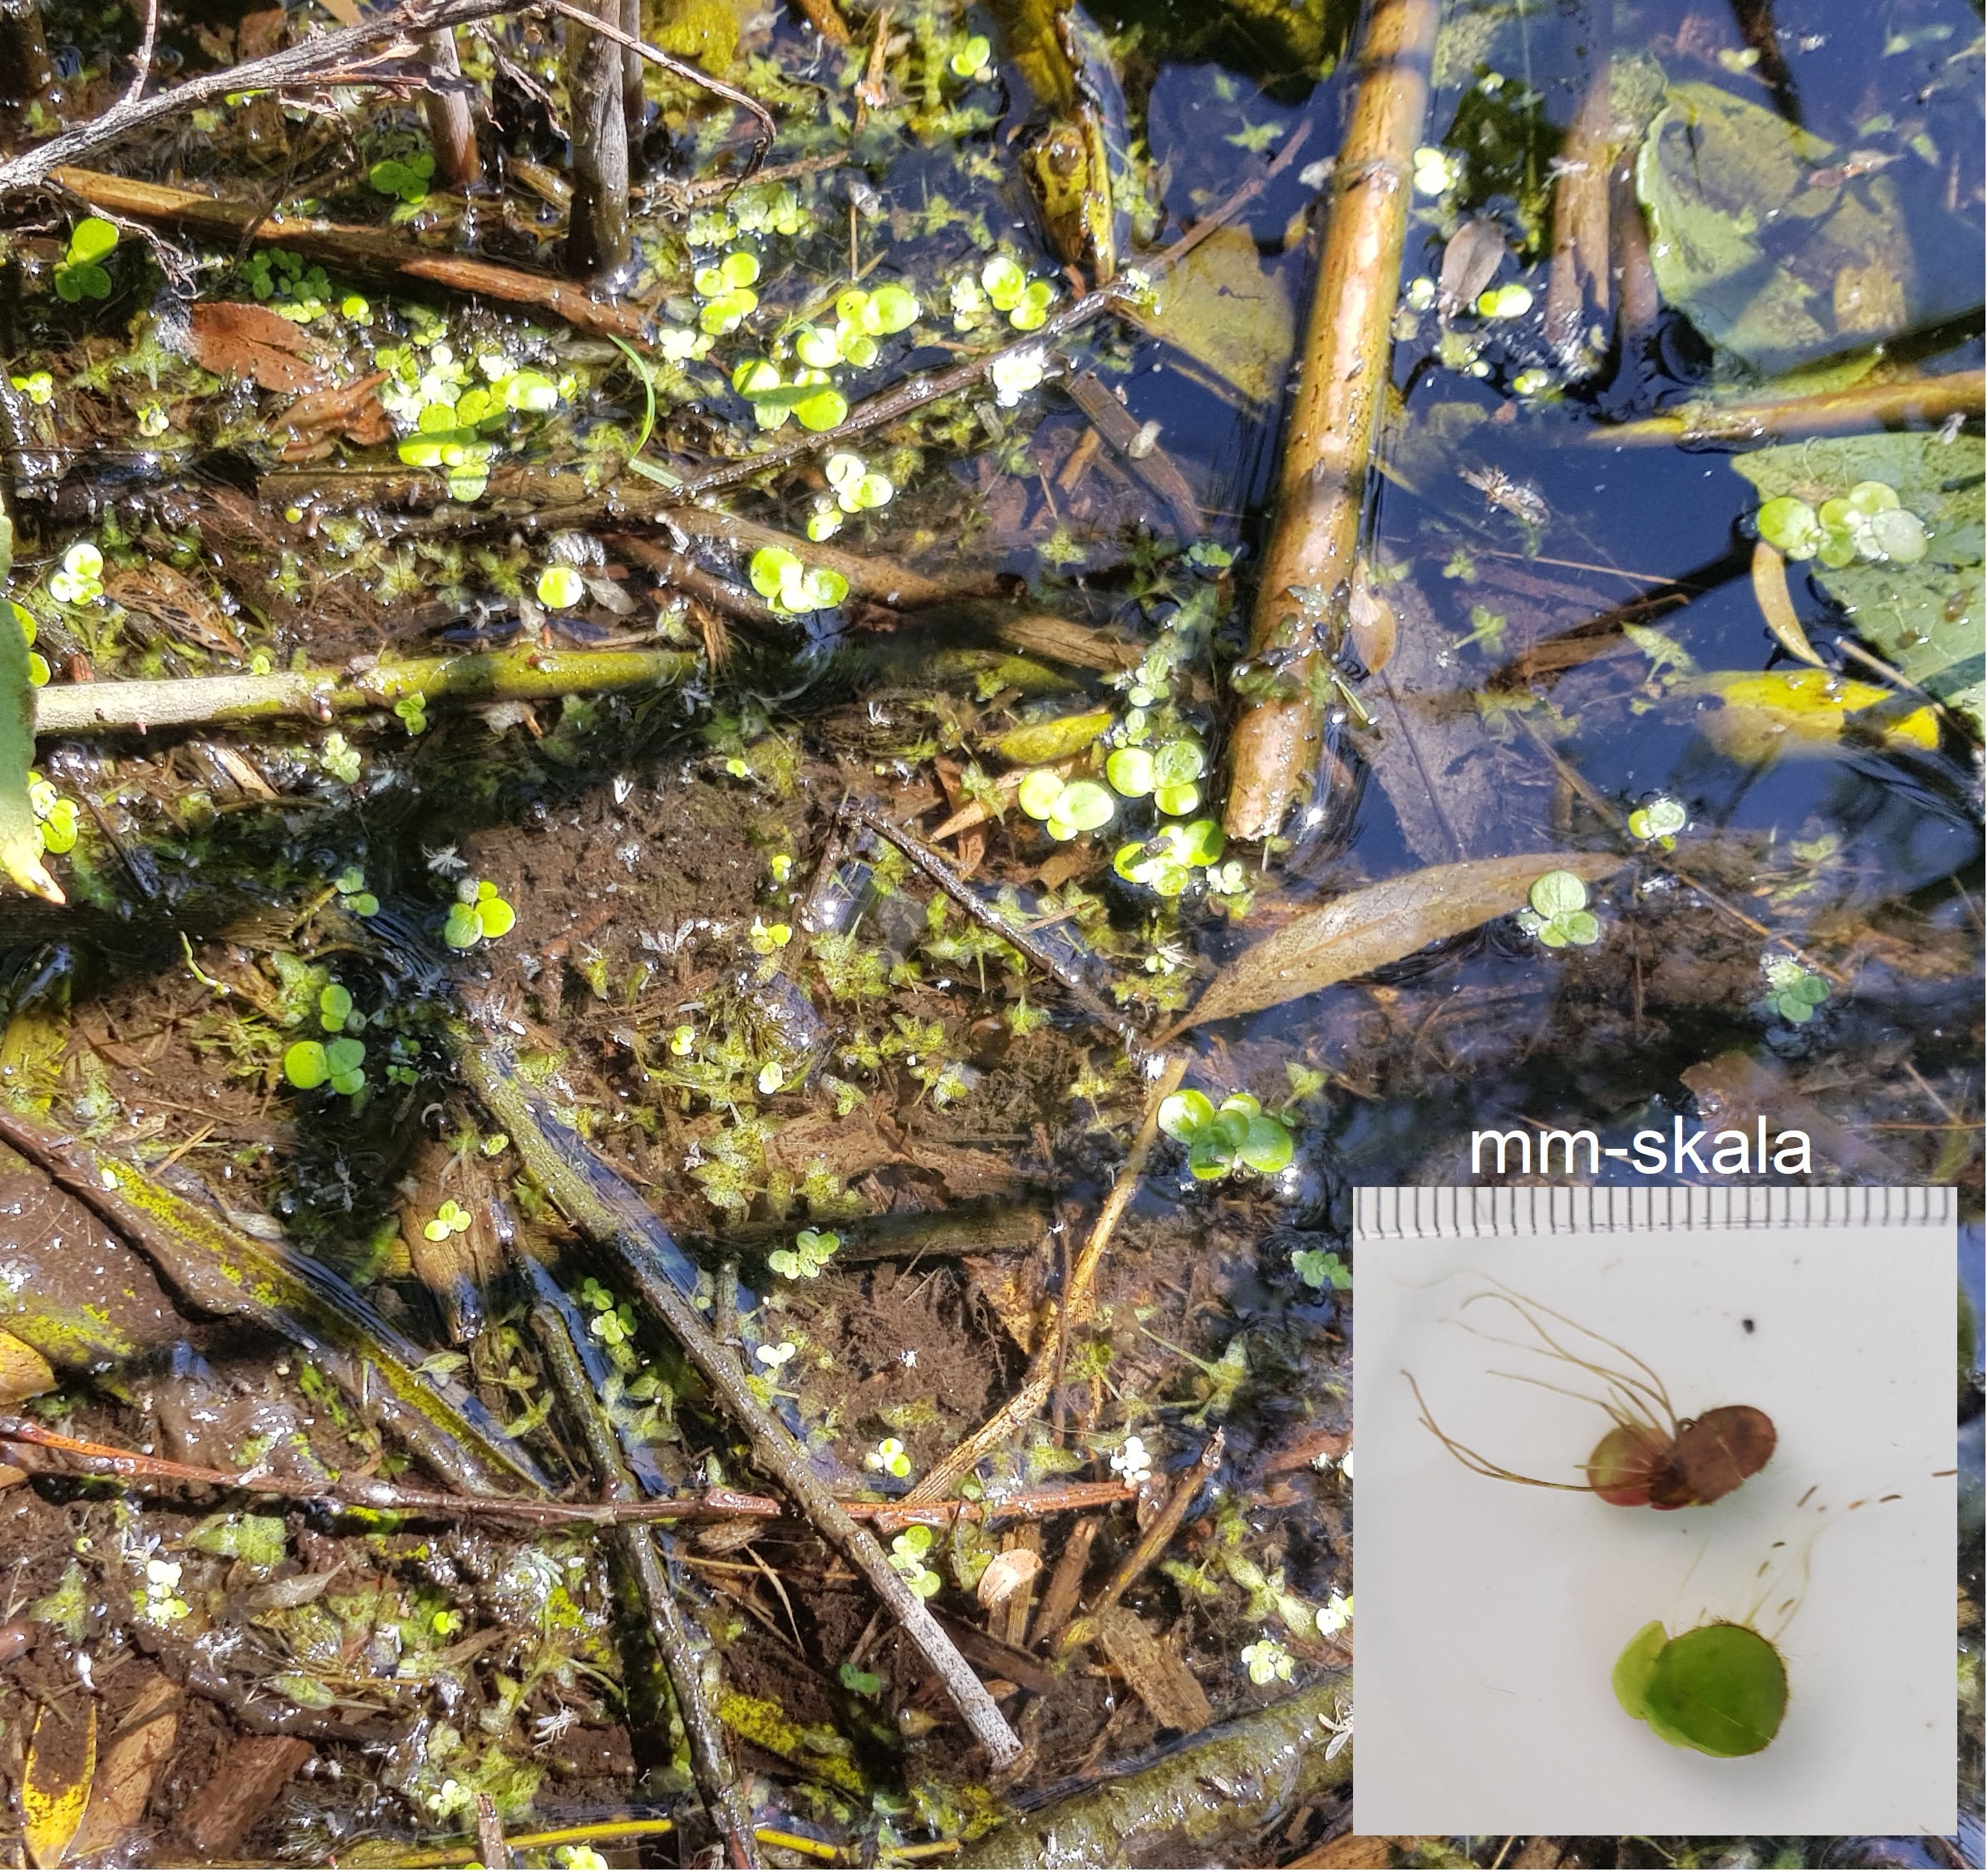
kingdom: Plantae
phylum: Tracheophyta
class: Liliopsida
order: Alismatales
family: Araceae
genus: Spirodela
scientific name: Spirodela polyrhiza
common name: Stor andemad
